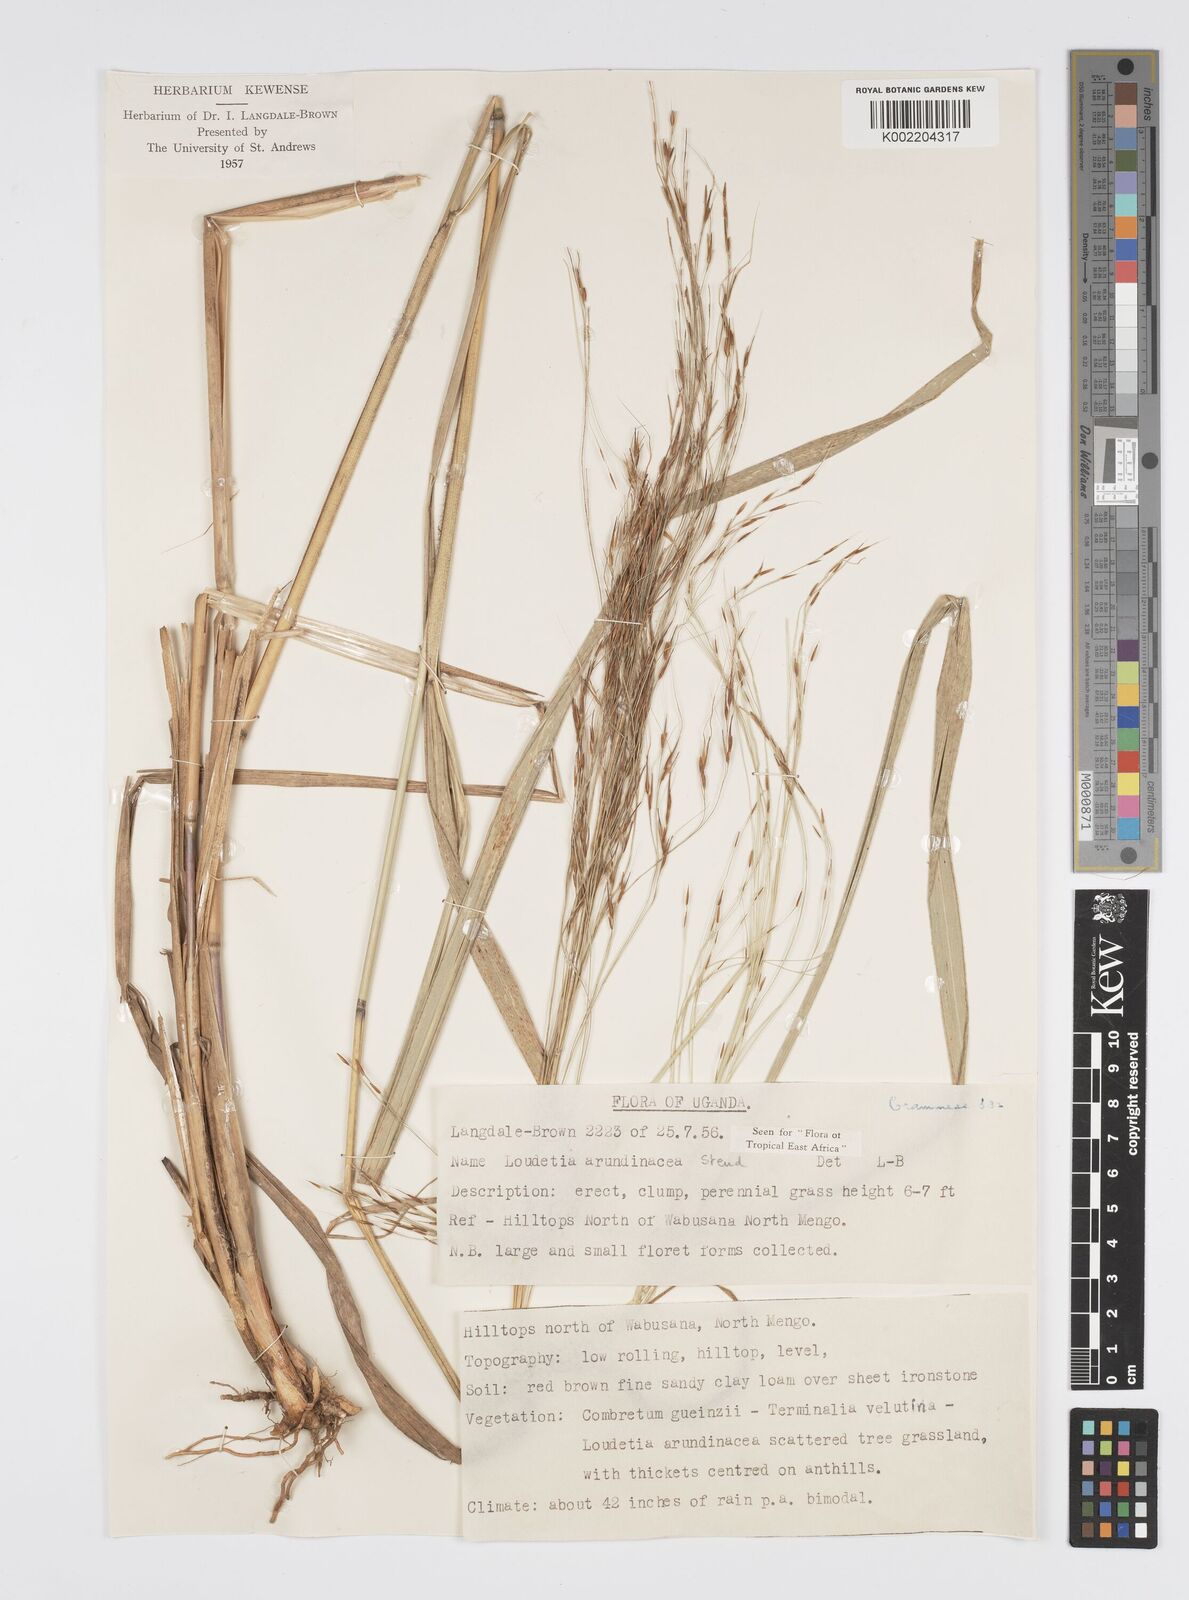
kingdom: Plantae
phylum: Tracheophyta
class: Liliopsida
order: Poales
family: Poaceae
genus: Loudetia
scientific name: Loudetia arundinacea
